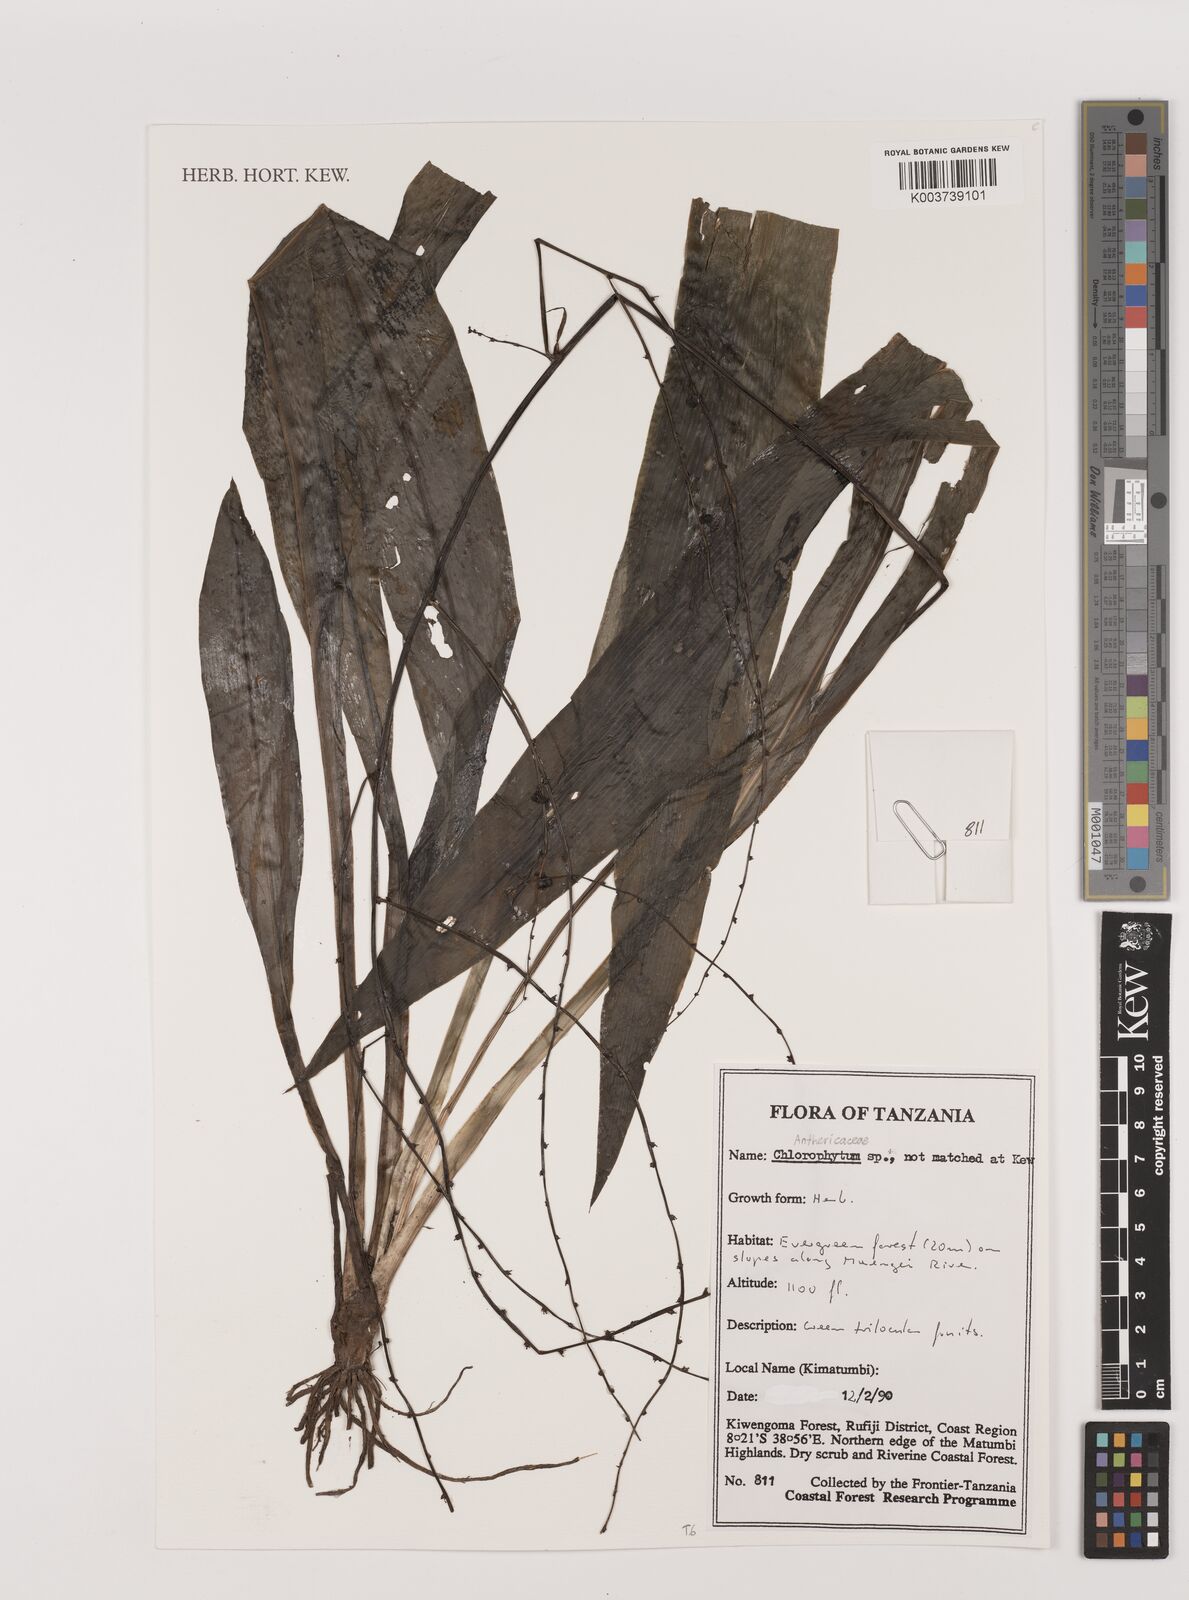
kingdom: Plantae
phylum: Tracheophyta
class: Liliopsida
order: Asparagales
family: Asparagaceae
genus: Chlorophytum
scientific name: Chlorophytum
